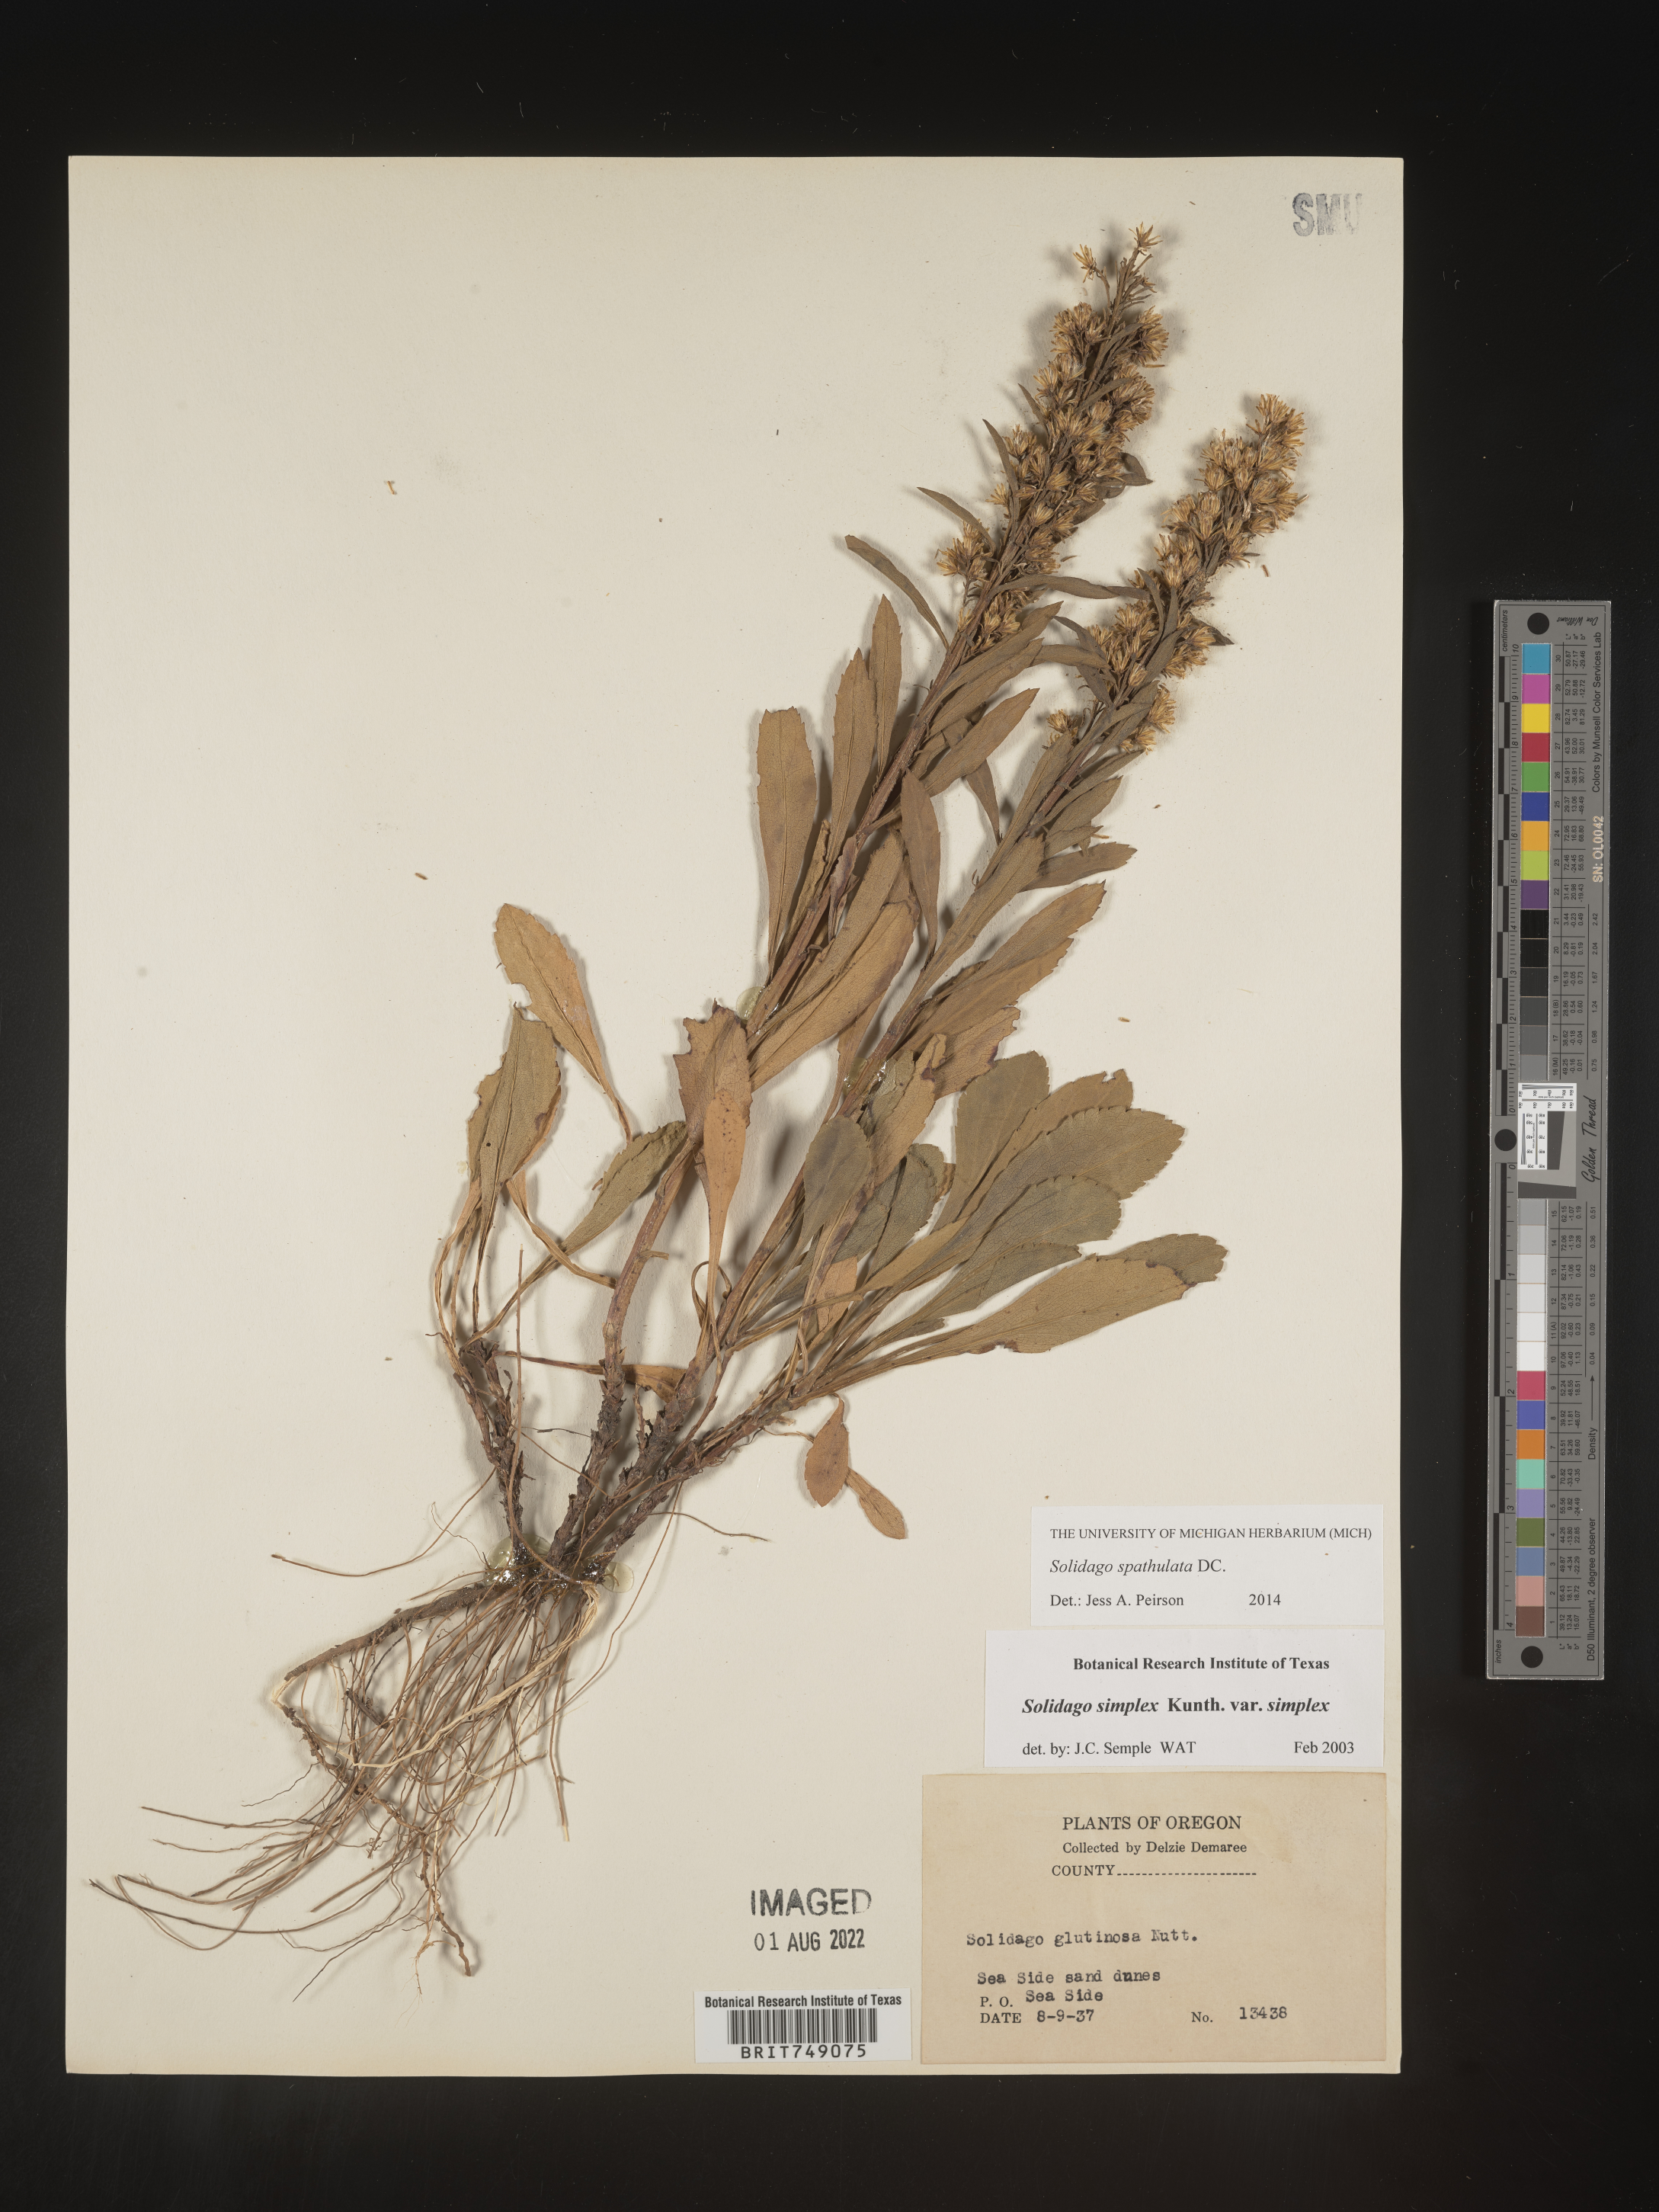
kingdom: Plantae
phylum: Tracheophyta
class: Magnoliopsida
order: Asterales
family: Asteraceae
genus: Solidago
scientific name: Solidago spathulata
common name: Coast goldenrod
